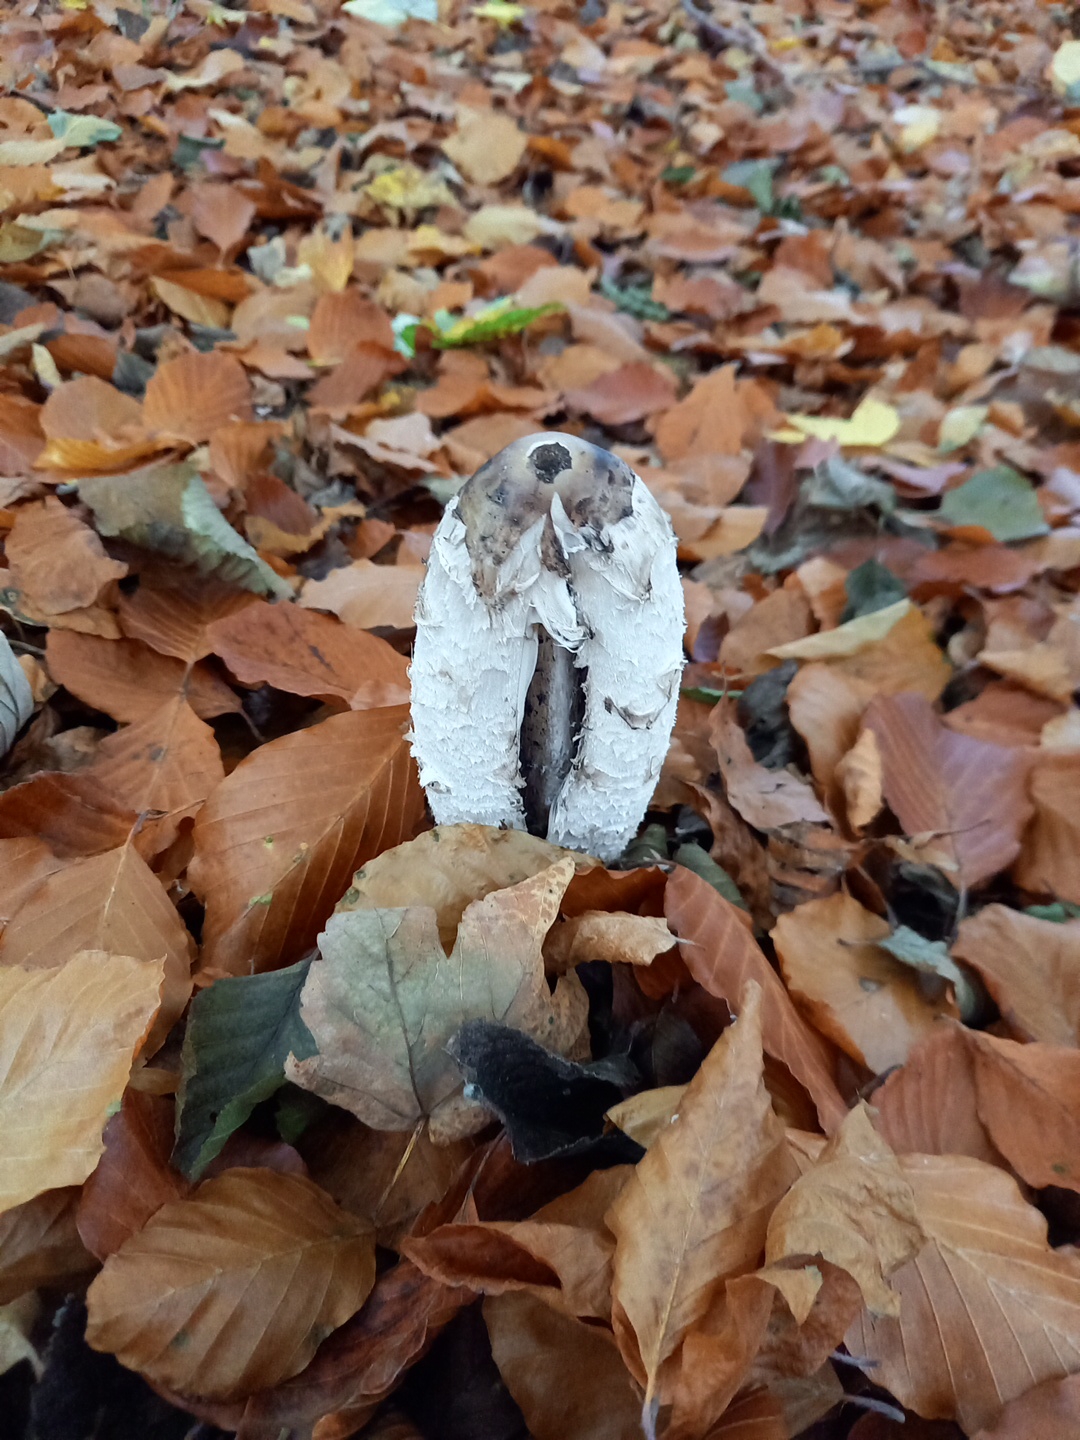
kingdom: Fungi
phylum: Basidiomycota
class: Agaricomycetes
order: Agaricales
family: Agaricaceae
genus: Coprinus
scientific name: Coprinus comatus
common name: stor parykhat
